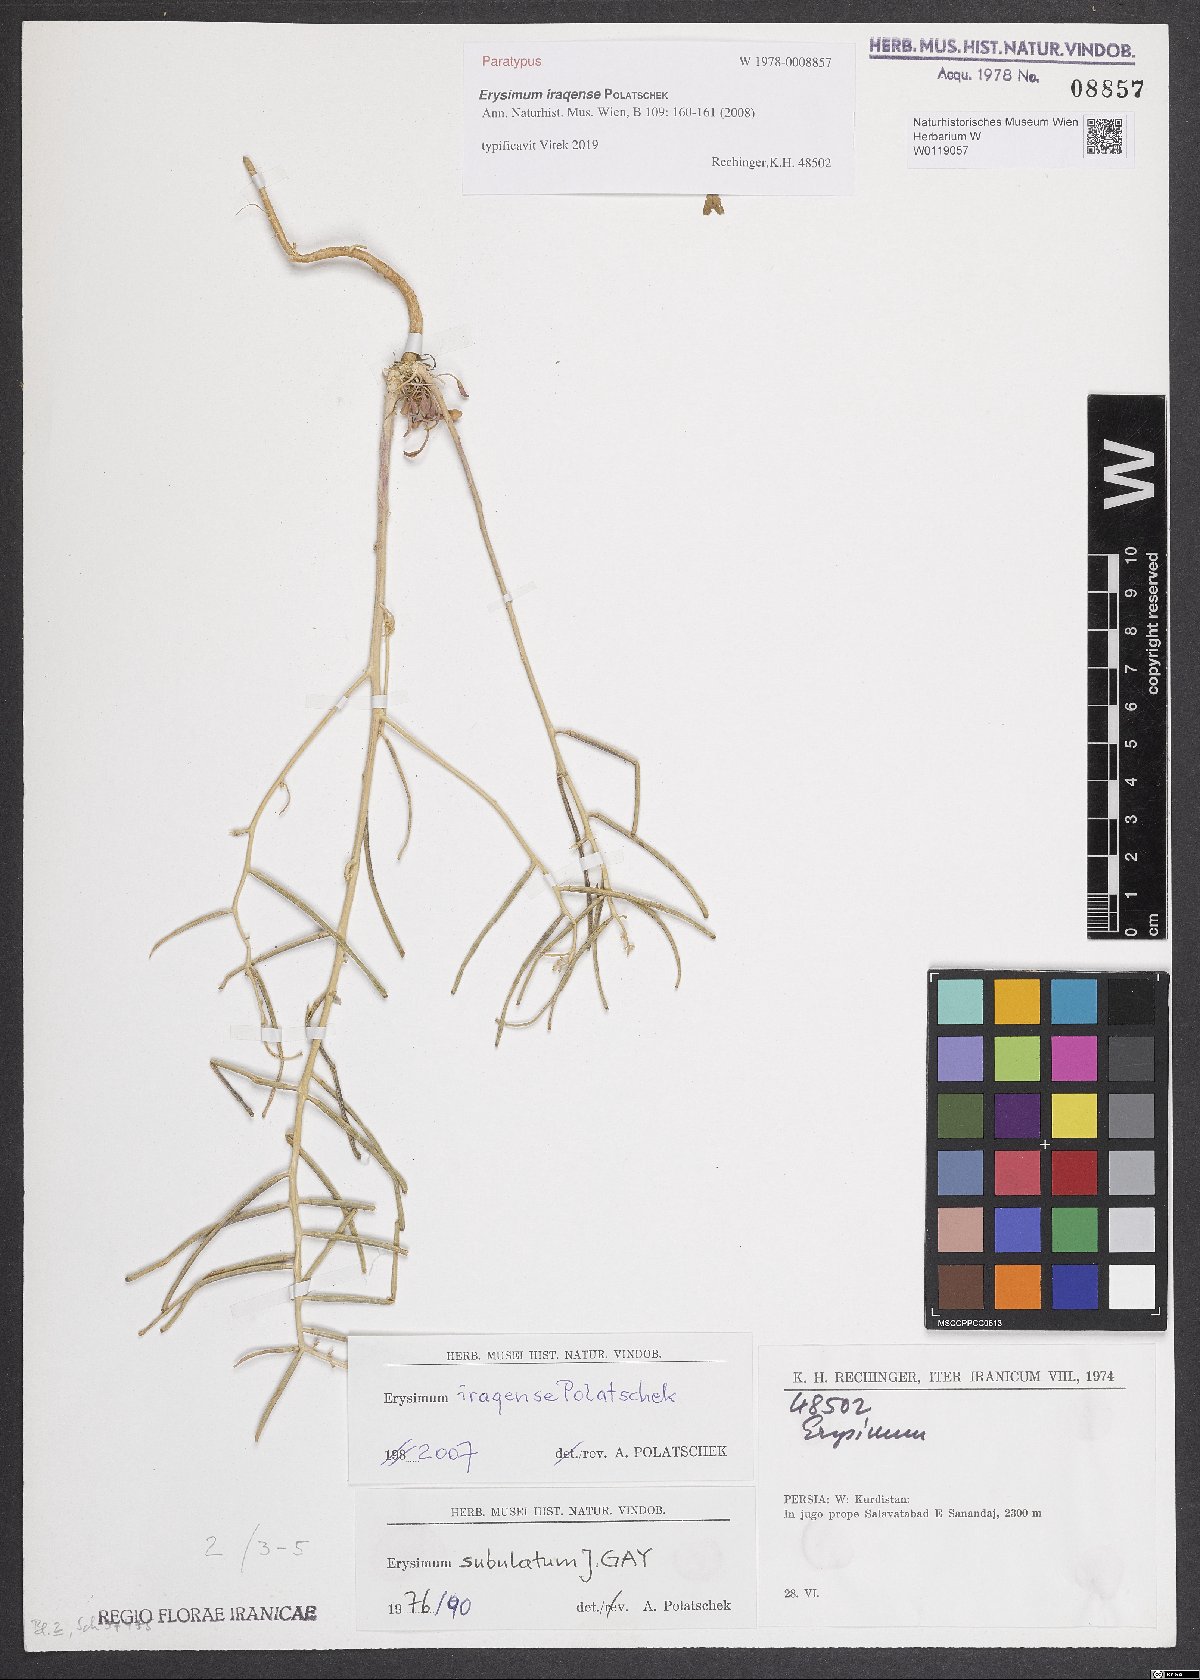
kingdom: Plantae
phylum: Tracheophyta
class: Magnoliopsida
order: Brassicales
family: Brassicaceae
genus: Erysimum
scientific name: Erysimum iraqense
